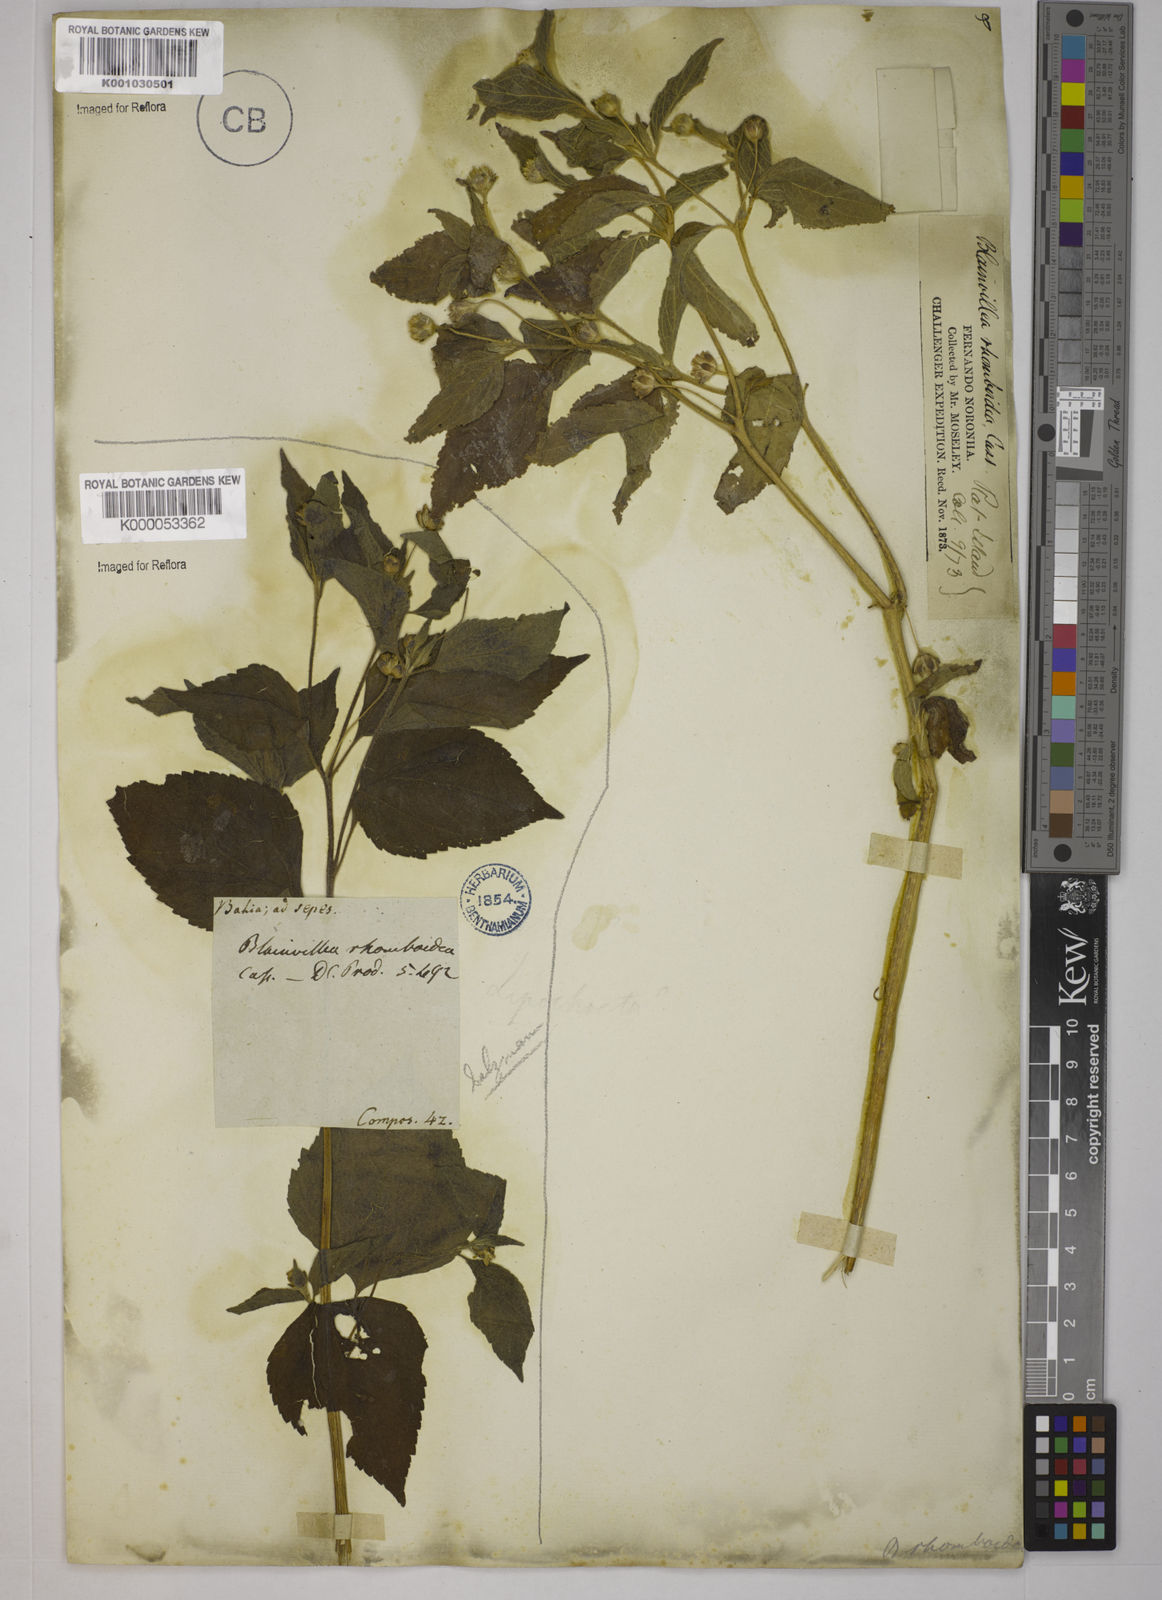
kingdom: Plantae
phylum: Tracheophyta
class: Magnoliopsida
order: Asterales
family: Asteraceae
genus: Blainvillea
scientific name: Blainvillea dichotoma
